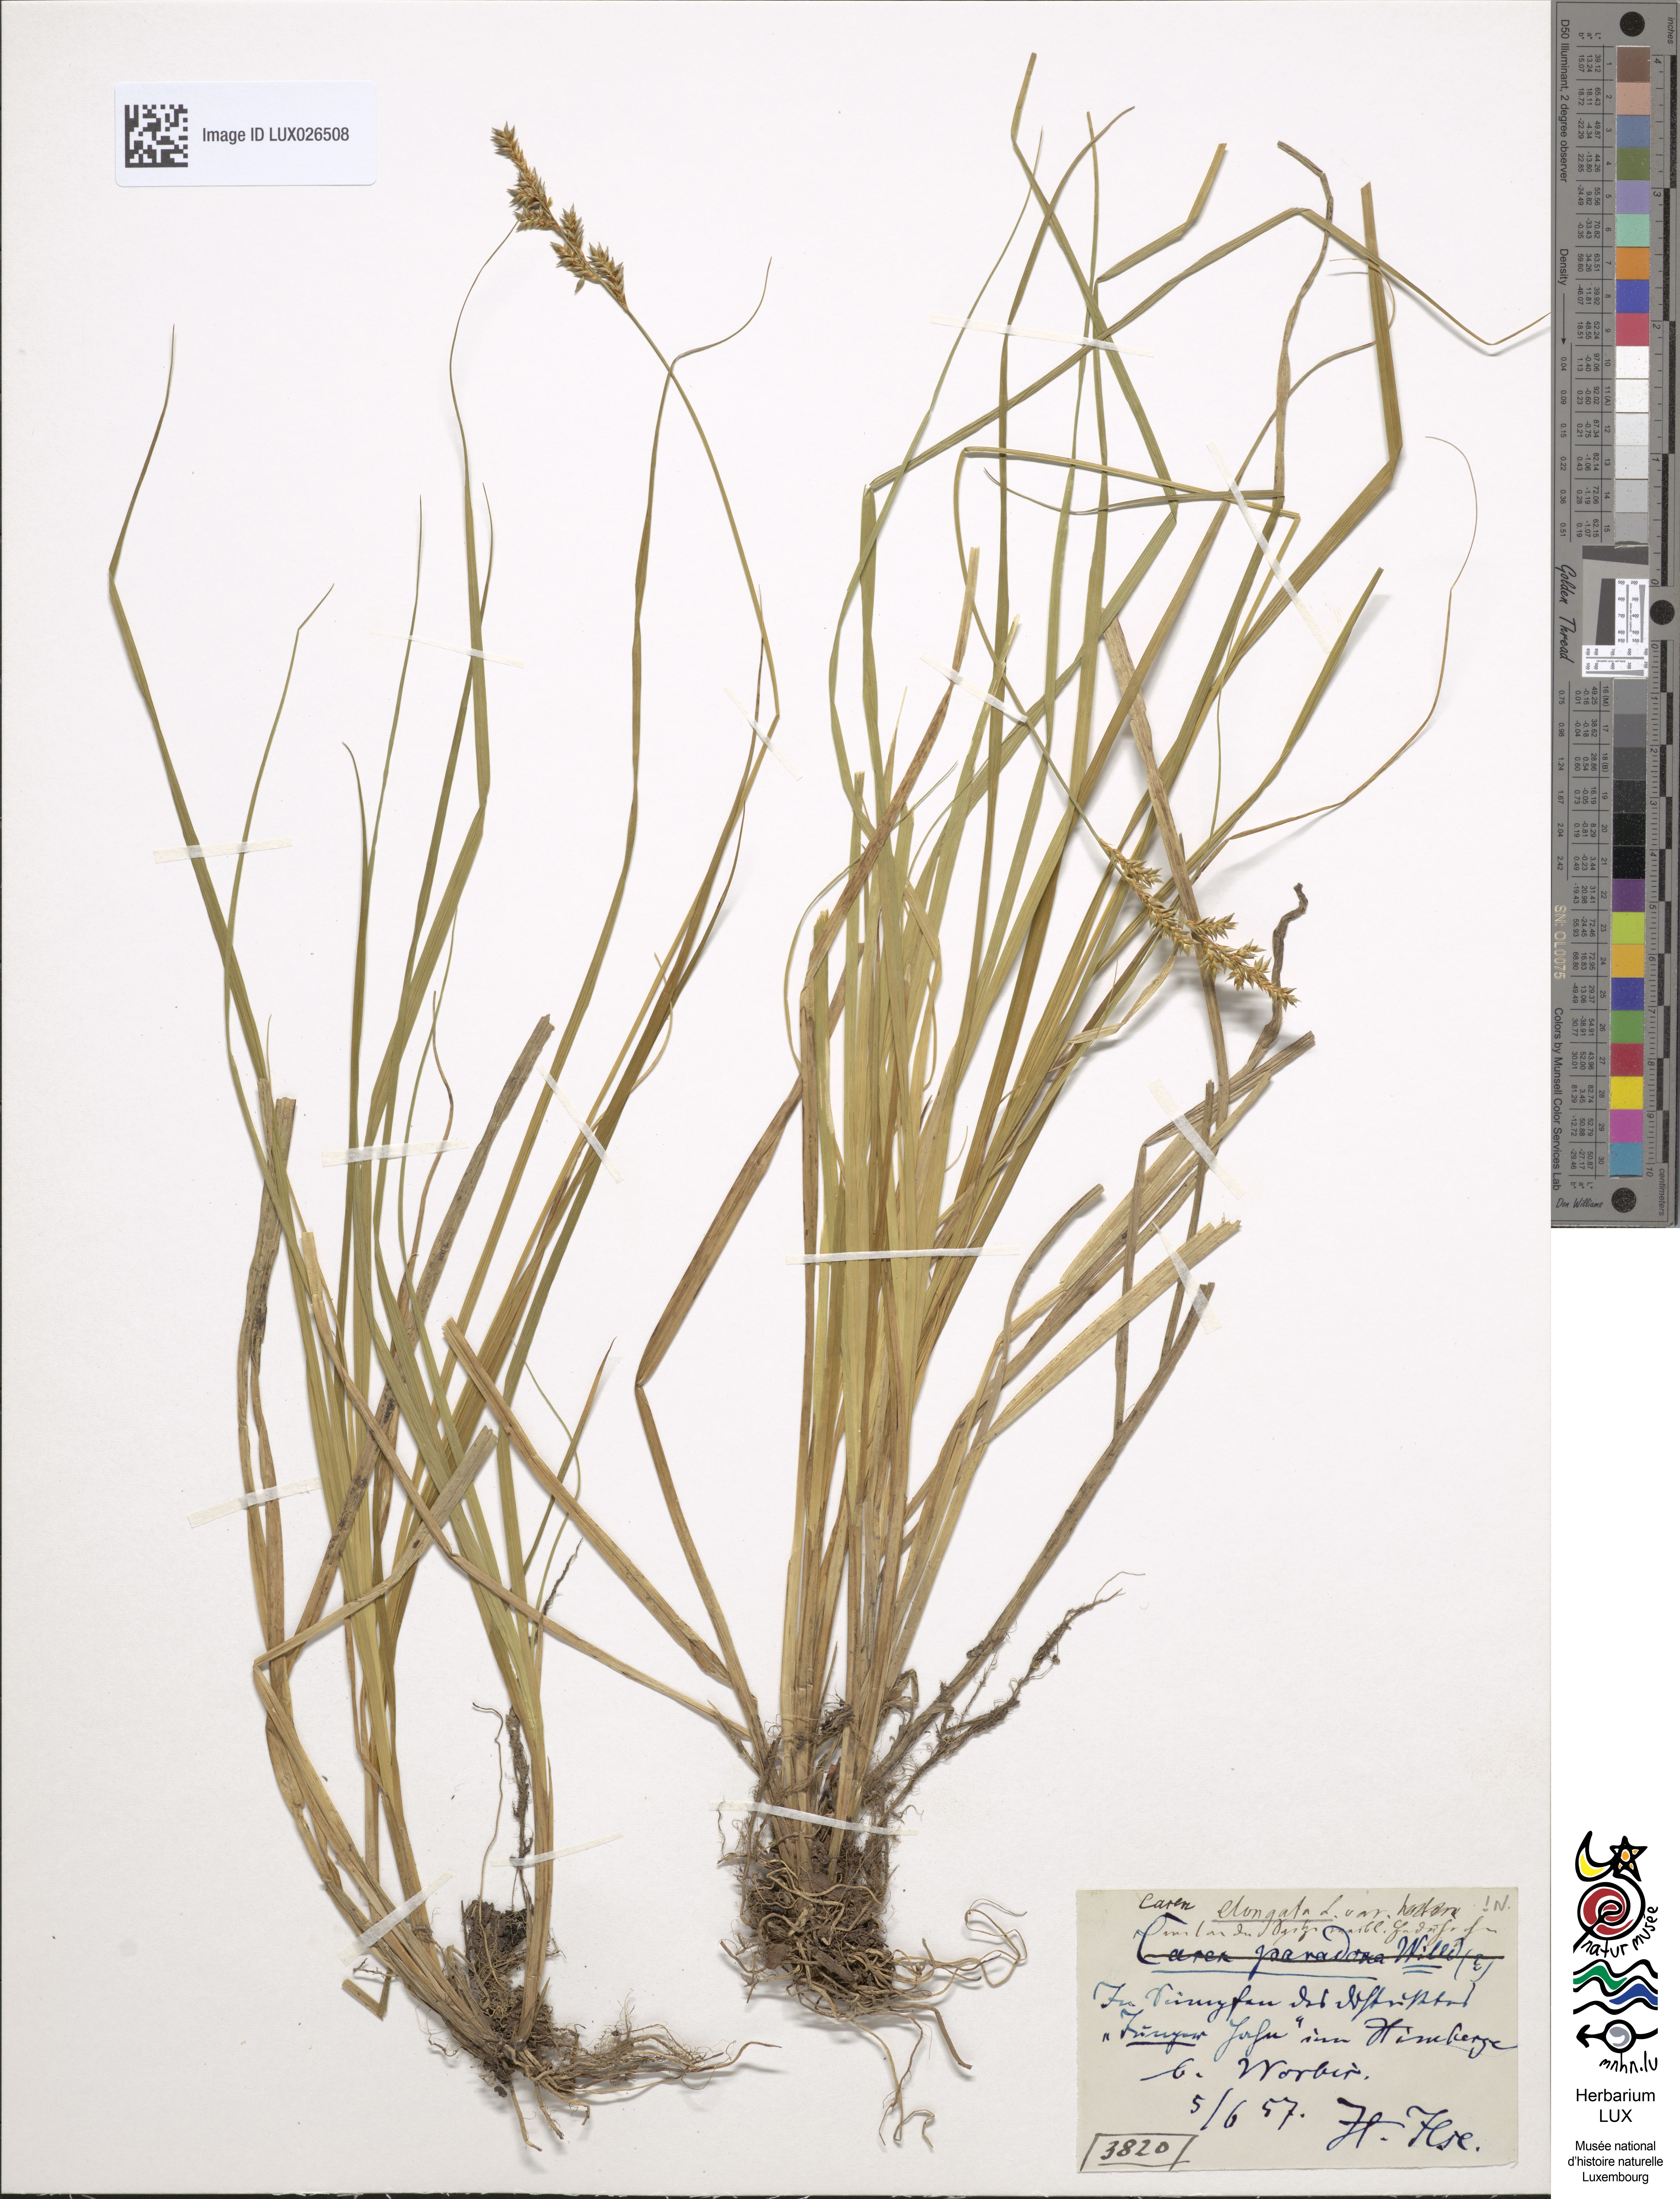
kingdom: Plantae
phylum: Tracheophyta
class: Liliopsida
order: Poales
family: Cyperaceae
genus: Carex
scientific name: Carex elongata
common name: Elongated sedge
